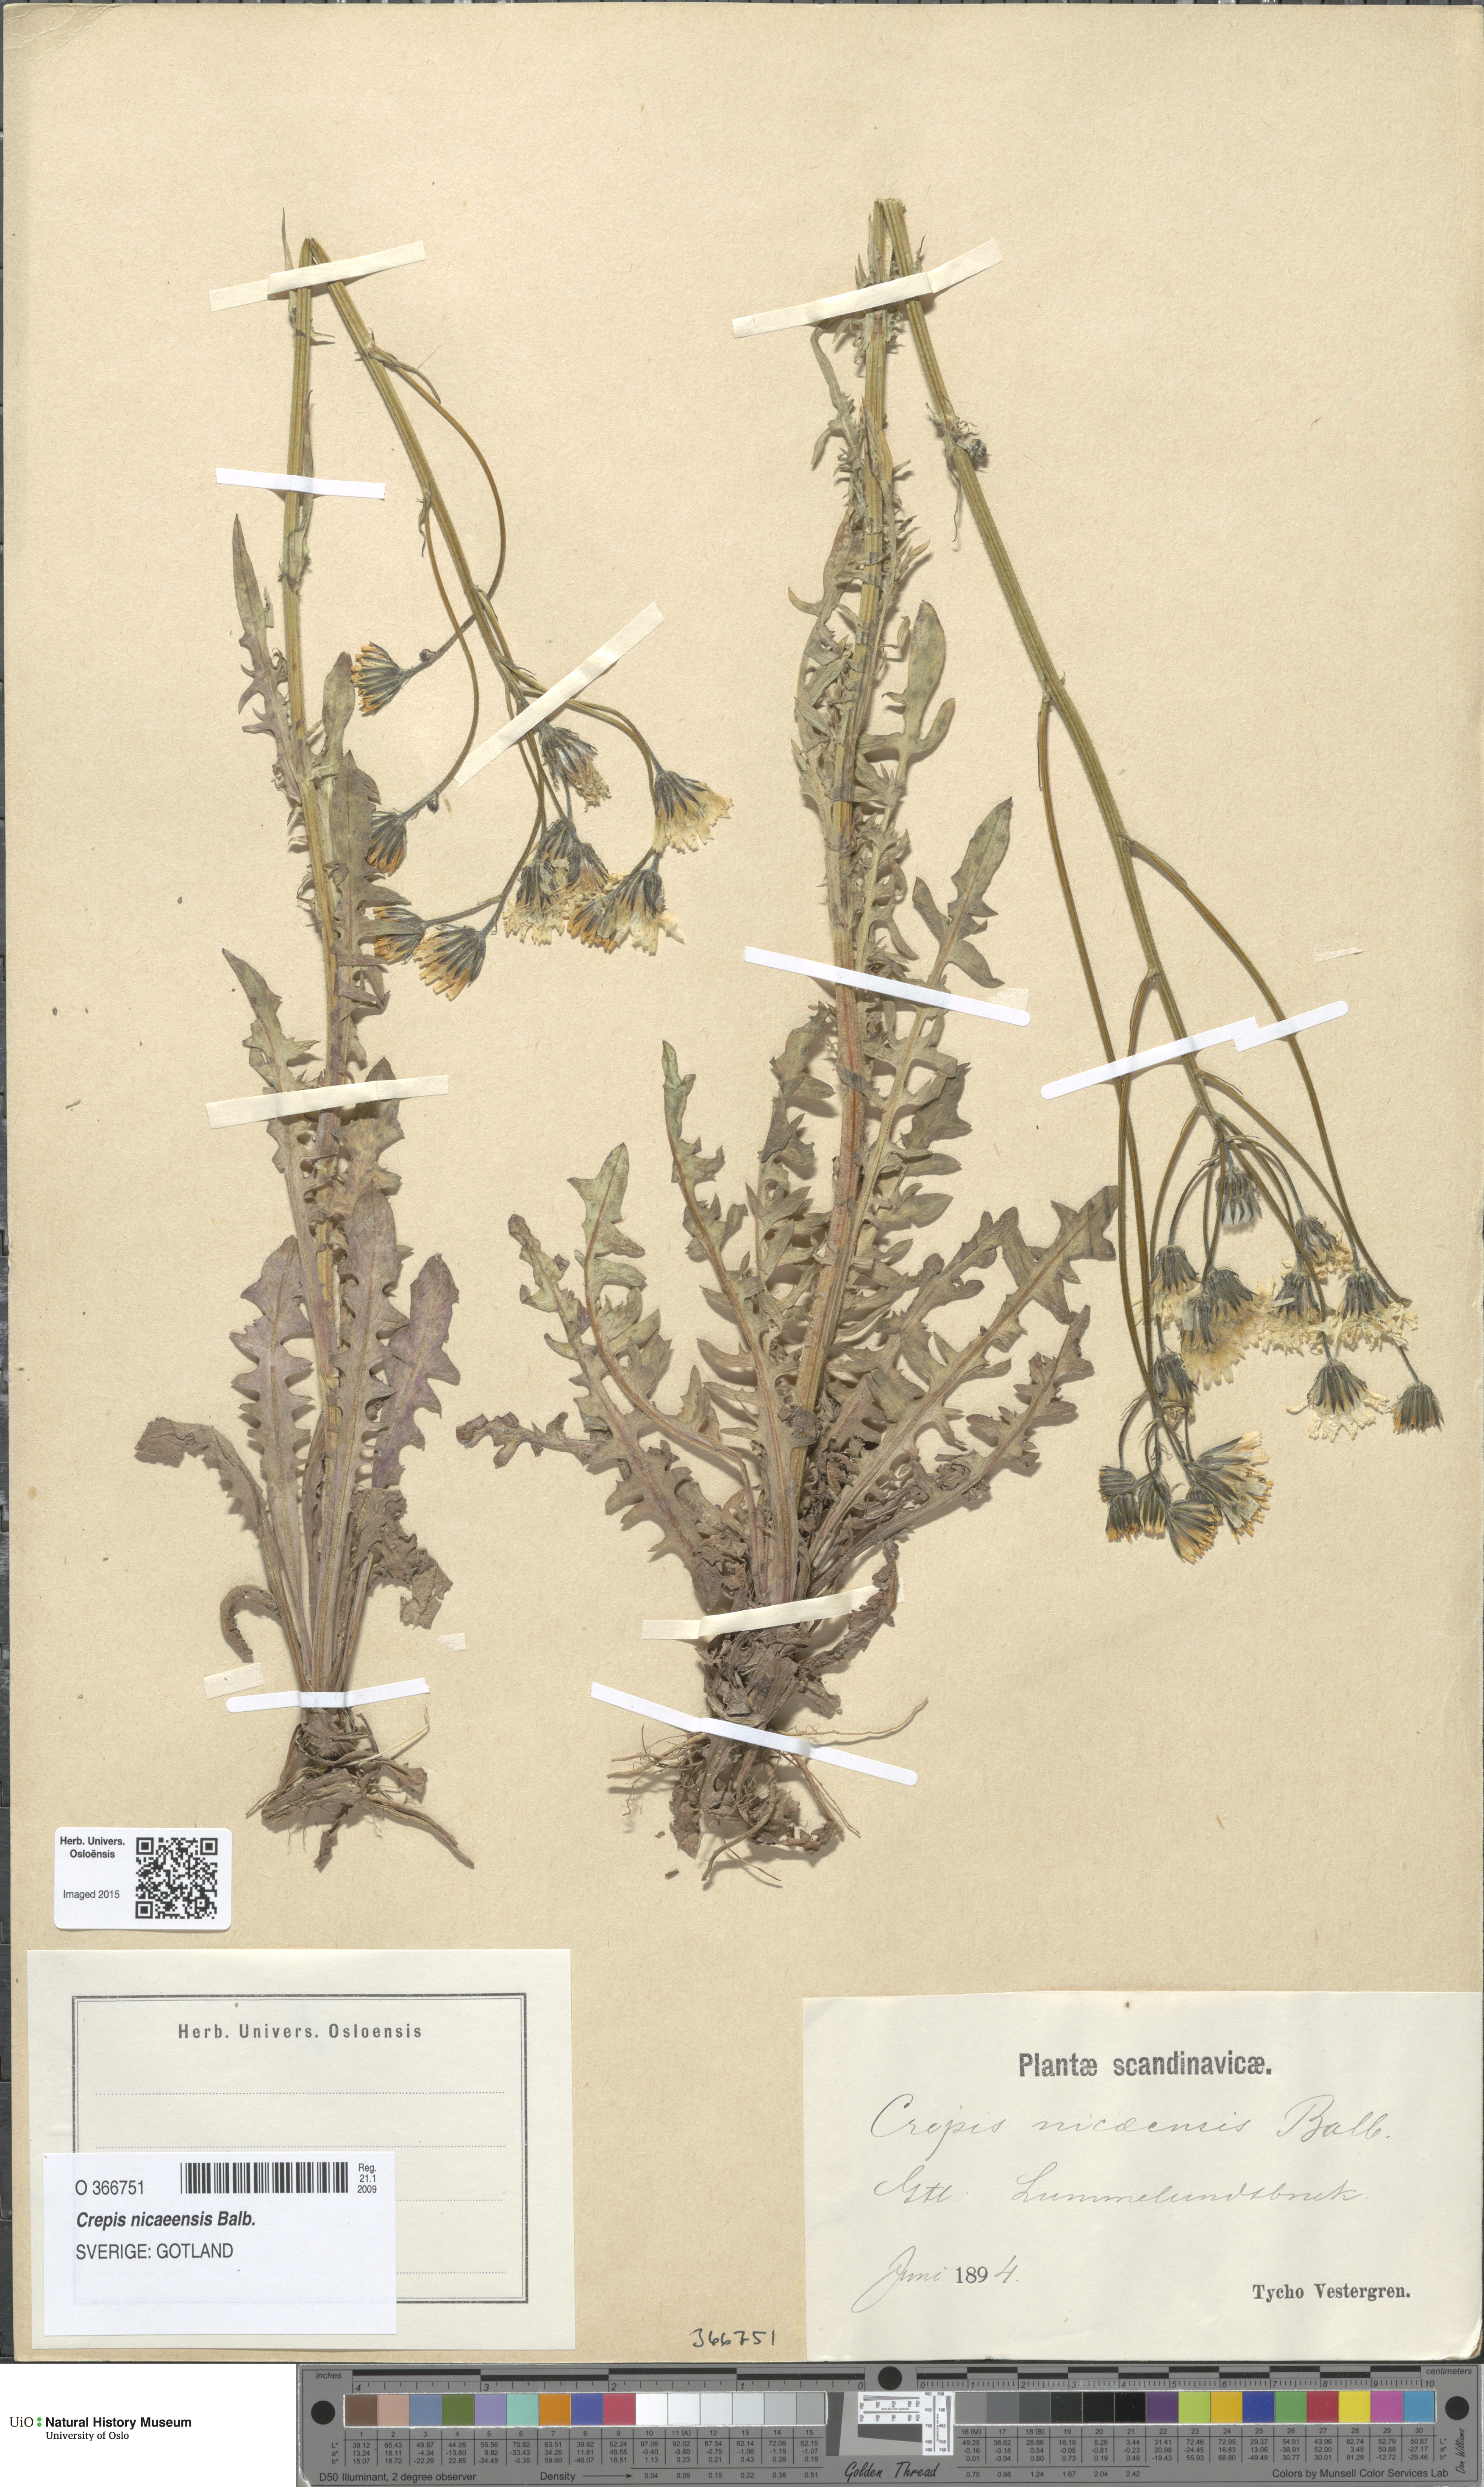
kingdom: Plantae
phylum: Tracheophyta
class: Magnoliopsida
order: Asterales
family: Asteraceae
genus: Crepis
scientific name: Crepis nicaeensis
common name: Turkish hawksbeard
